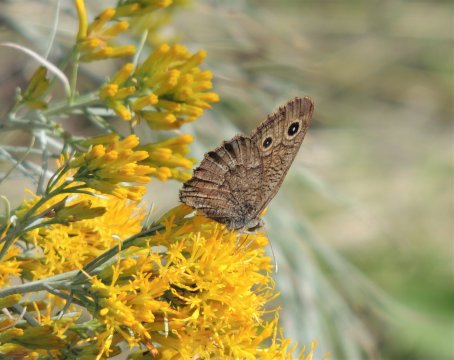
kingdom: Animalia
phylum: Arthropoda
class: Insecta
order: Lepidoptera
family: Nymphalidae
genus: Cercyonis
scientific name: Cercyonis sthenele
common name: Great Basin Wood-Nymph
